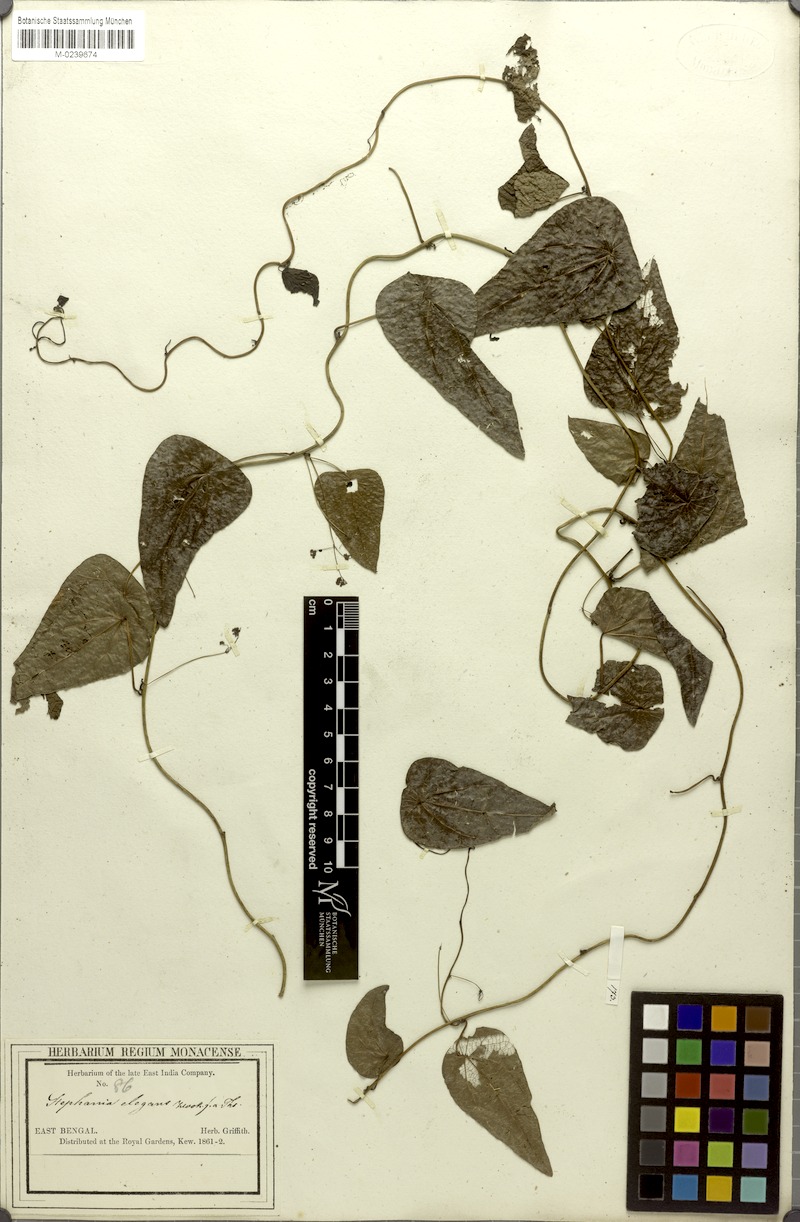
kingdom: Plantae
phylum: Tracheophyta
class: Magnoliopsida
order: Ranunculales
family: Menispermaceae
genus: Stephania
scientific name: Stephania elegans
